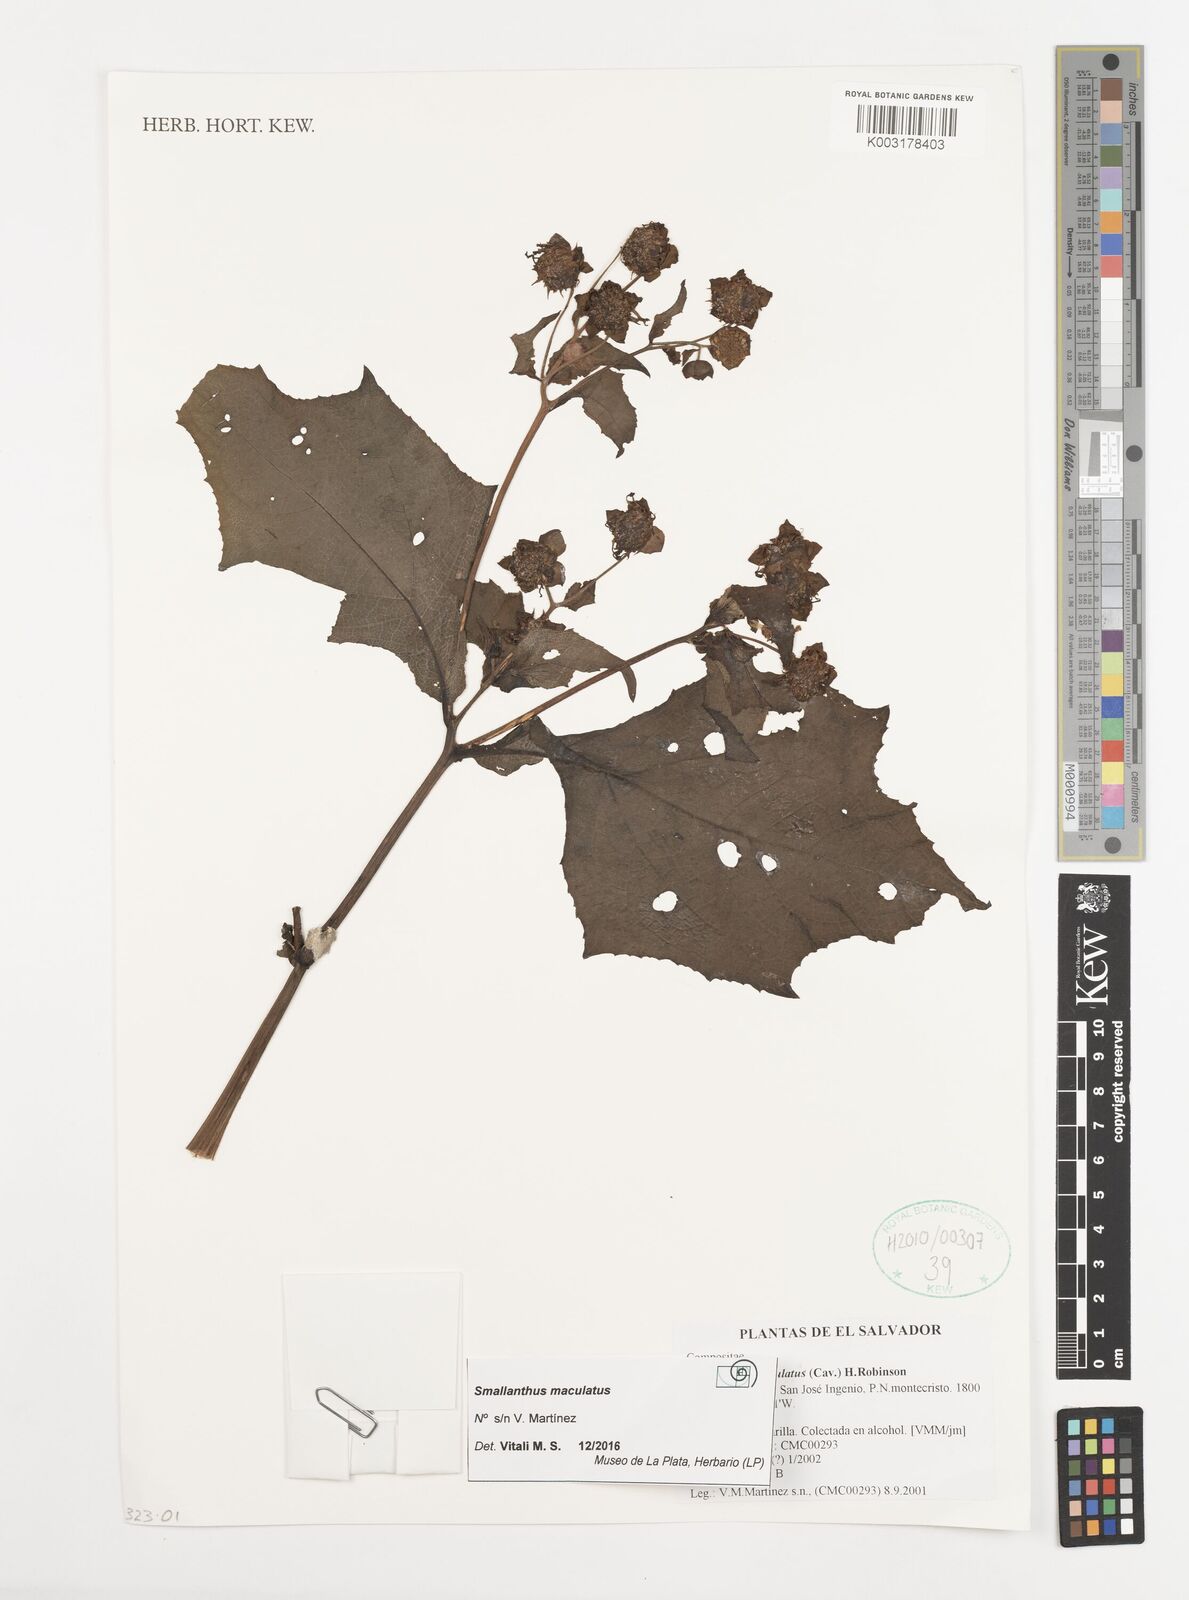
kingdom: Plantae
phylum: Tracheophyta
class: Magnoliopsida
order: Asterales
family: Asteraceae
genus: Smallanthus
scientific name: Smallanthus maculatus
